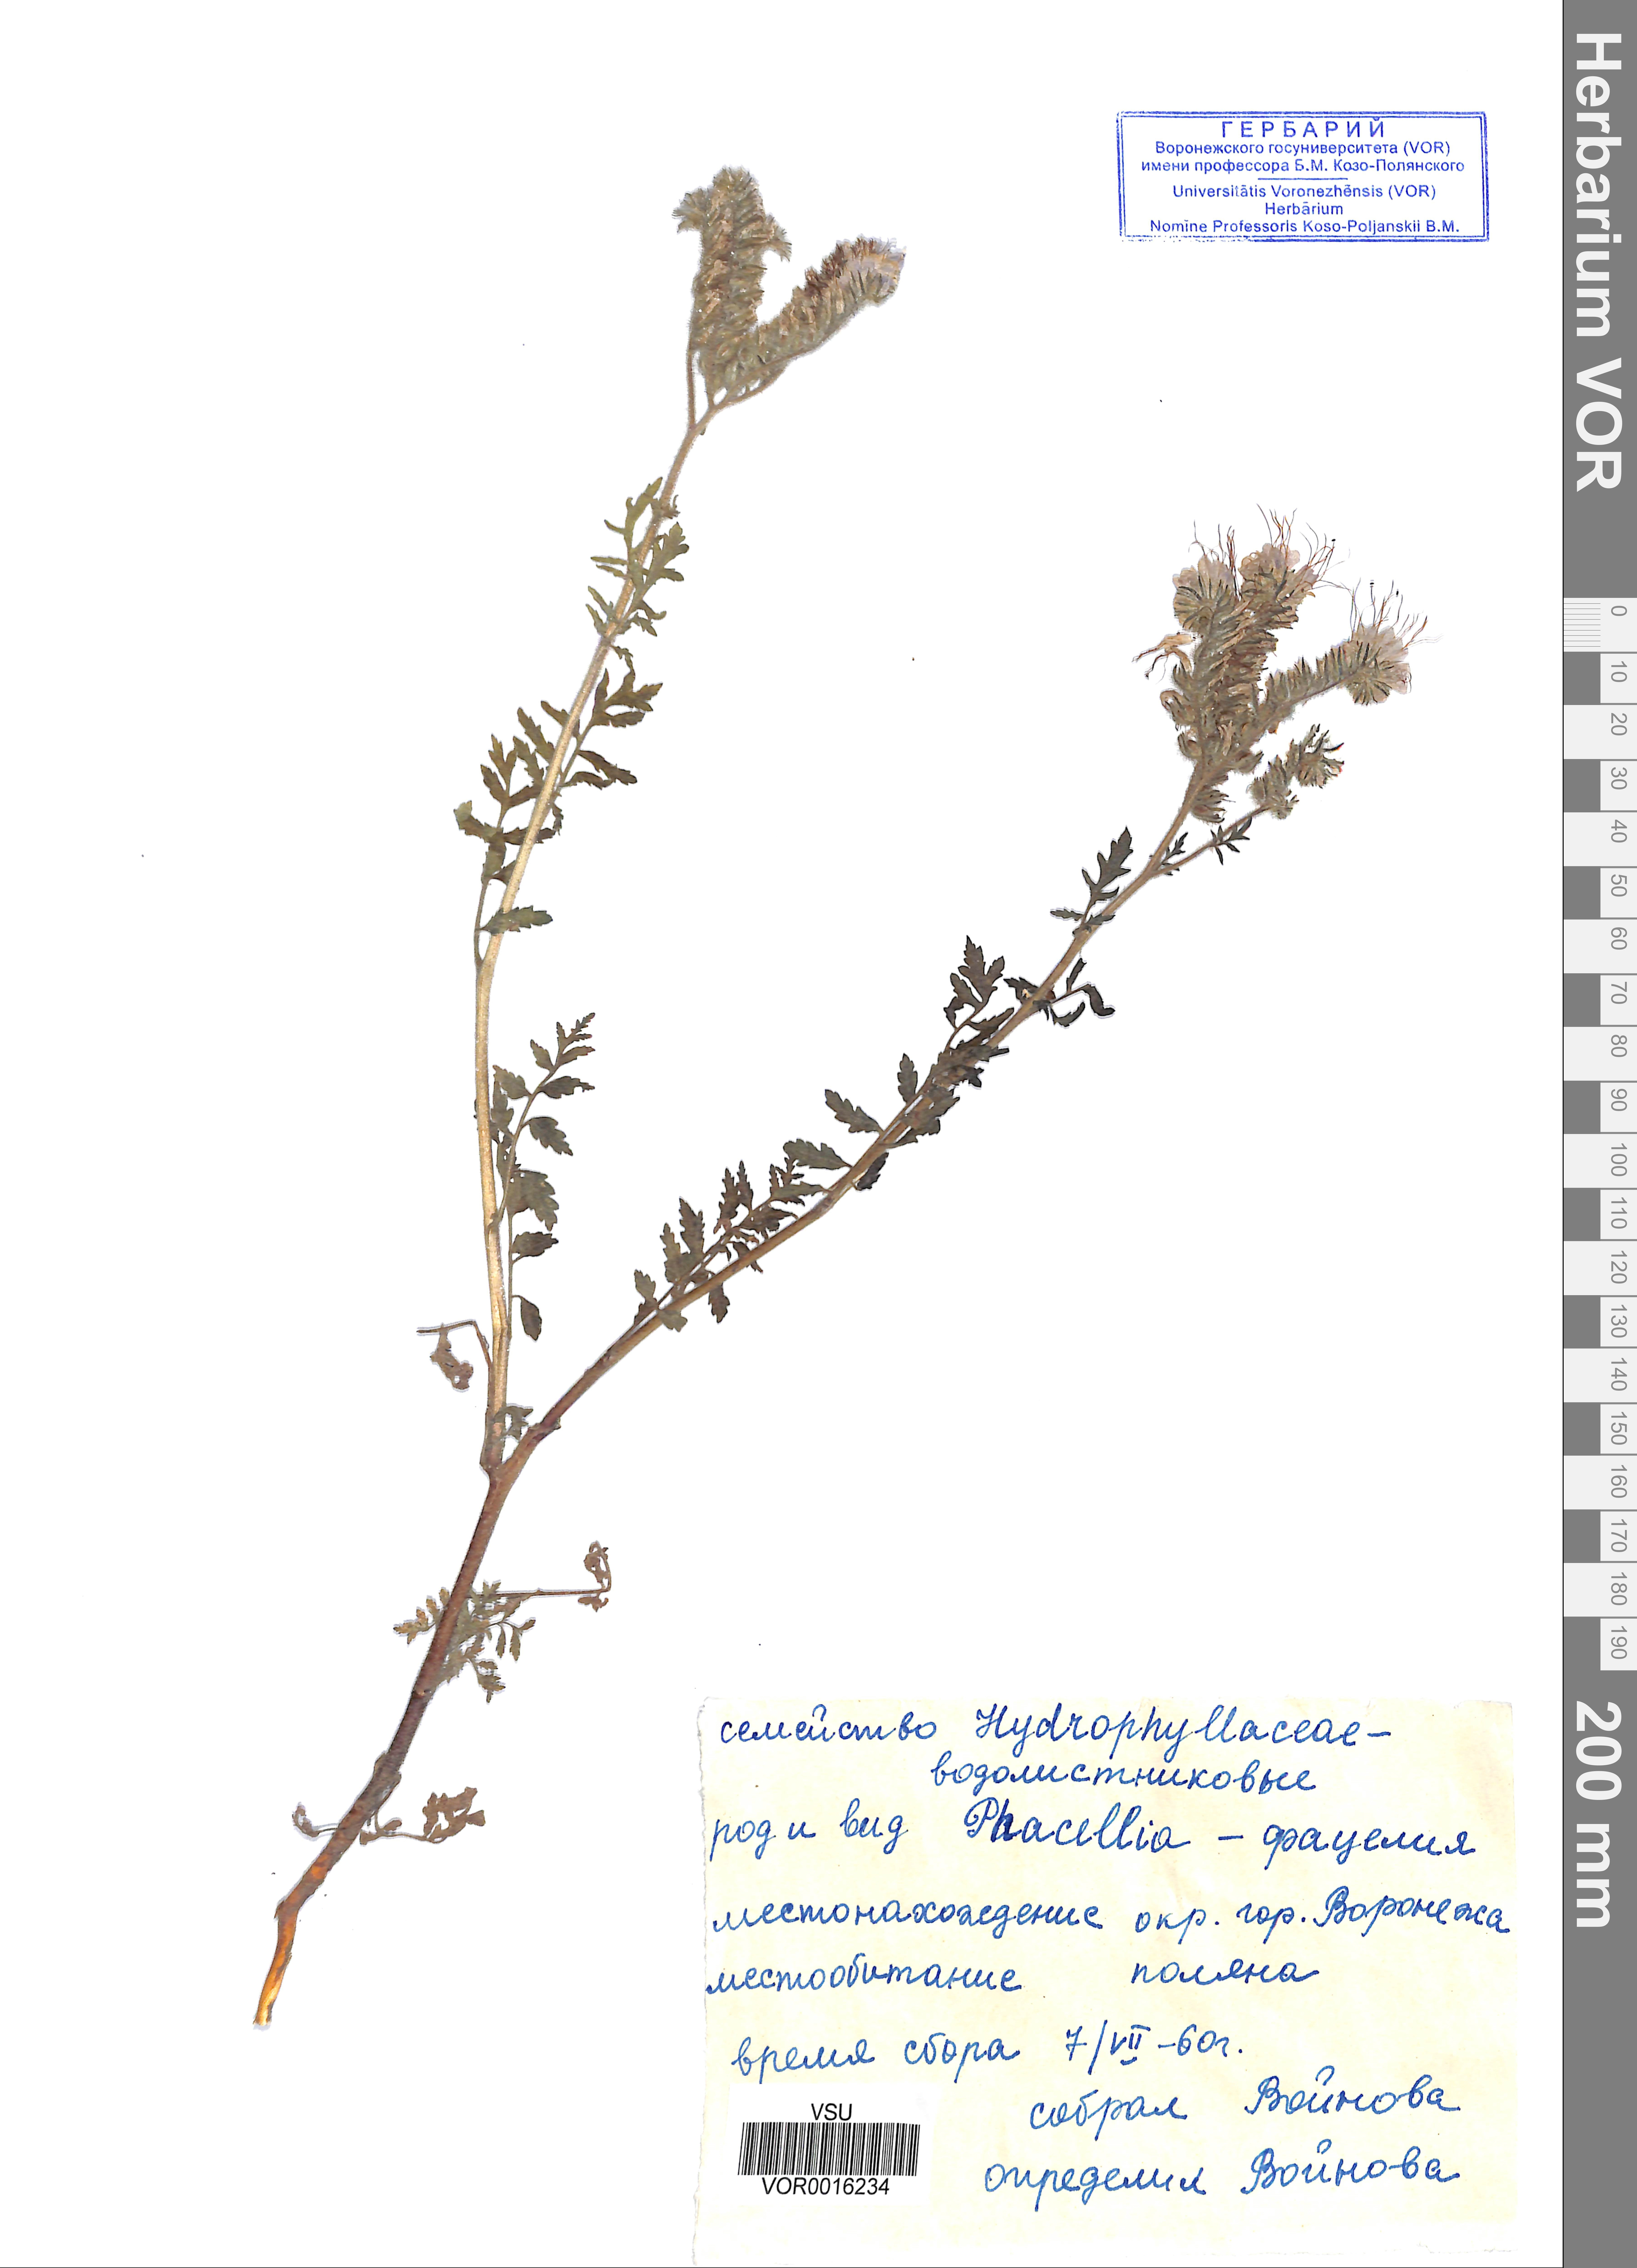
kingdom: Plantae
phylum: Tracheophyta
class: Magnoliopsida
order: Boraginales
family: Hydrophyllaceae
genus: Phacelia
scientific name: Phacelia tanacetifolia
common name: Phacelia
